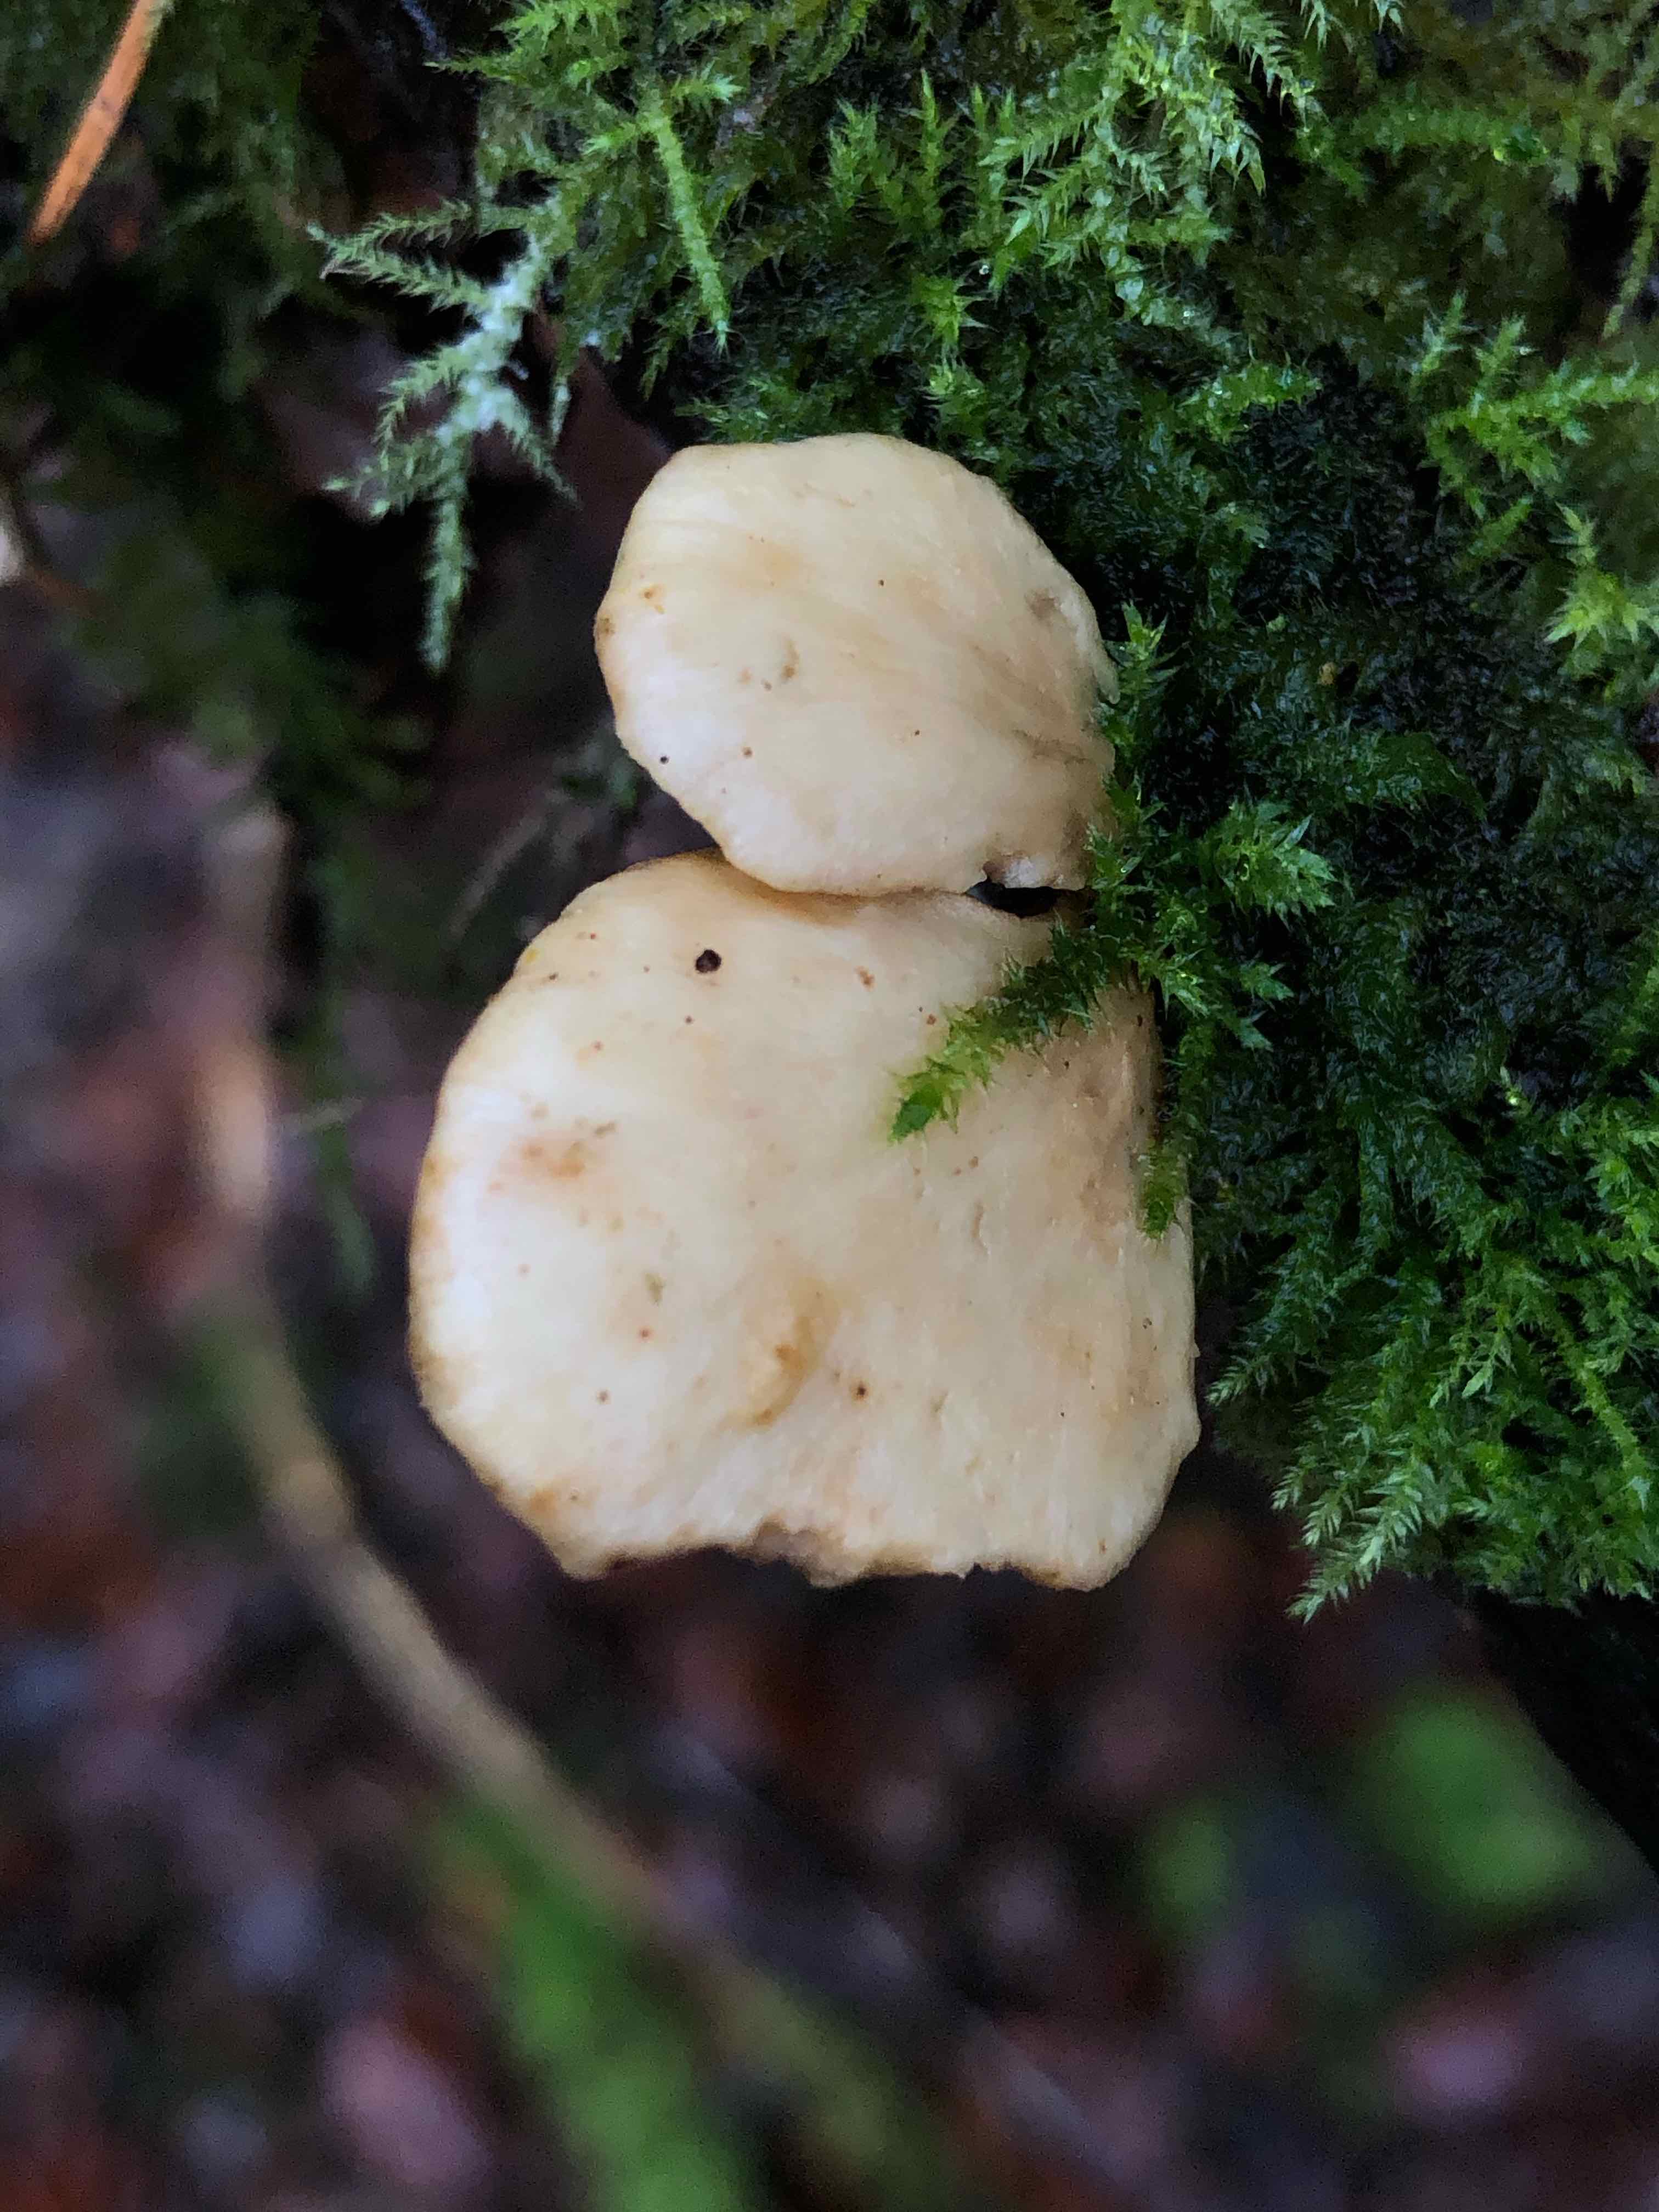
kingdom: Fungi
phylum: Basidiomycota
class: Agaricomycetes
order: Polyporales
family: Polyporaceae
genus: Cerioporus
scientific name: Cerioporus varius
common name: foranderlig stilkporesvamp
